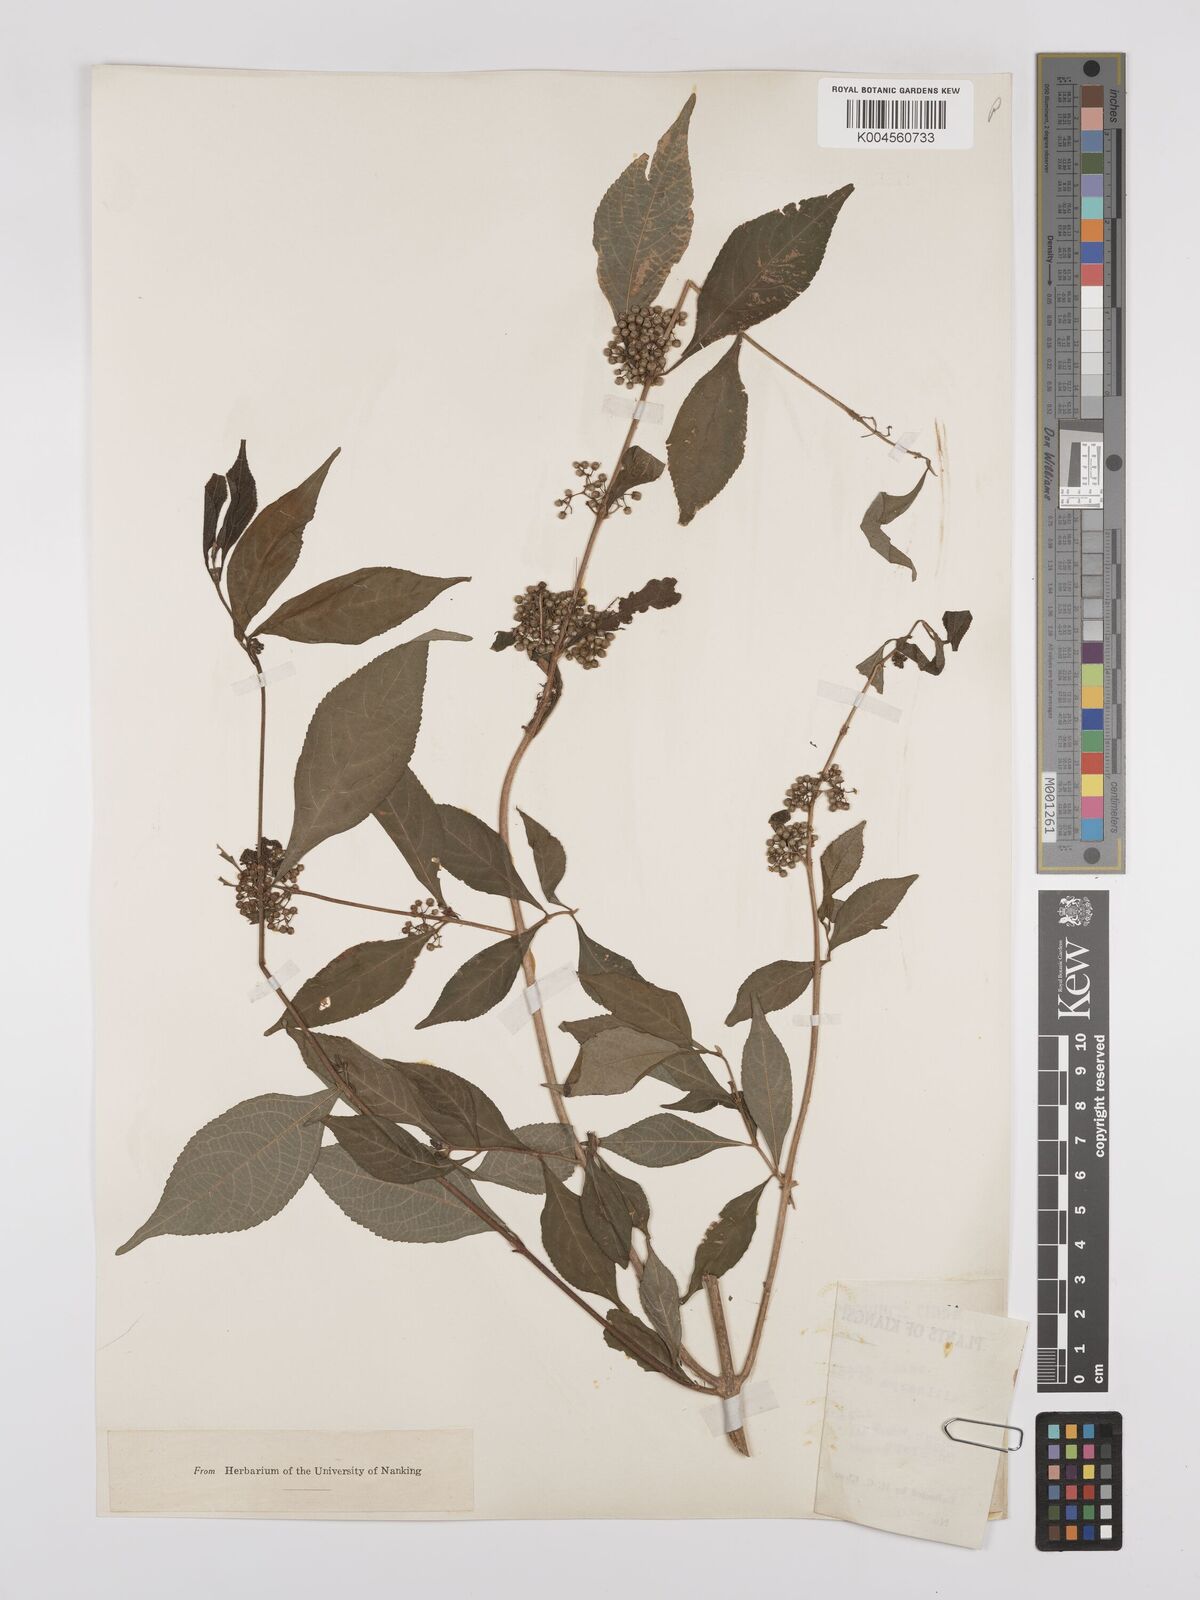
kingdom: Plantae
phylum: Tracheophyta
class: Magnoliopsida
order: Lamiales
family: Lamiaceae
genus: Callicarpa
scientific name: Callicarpa japonica
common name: Japanese beauty-berry
